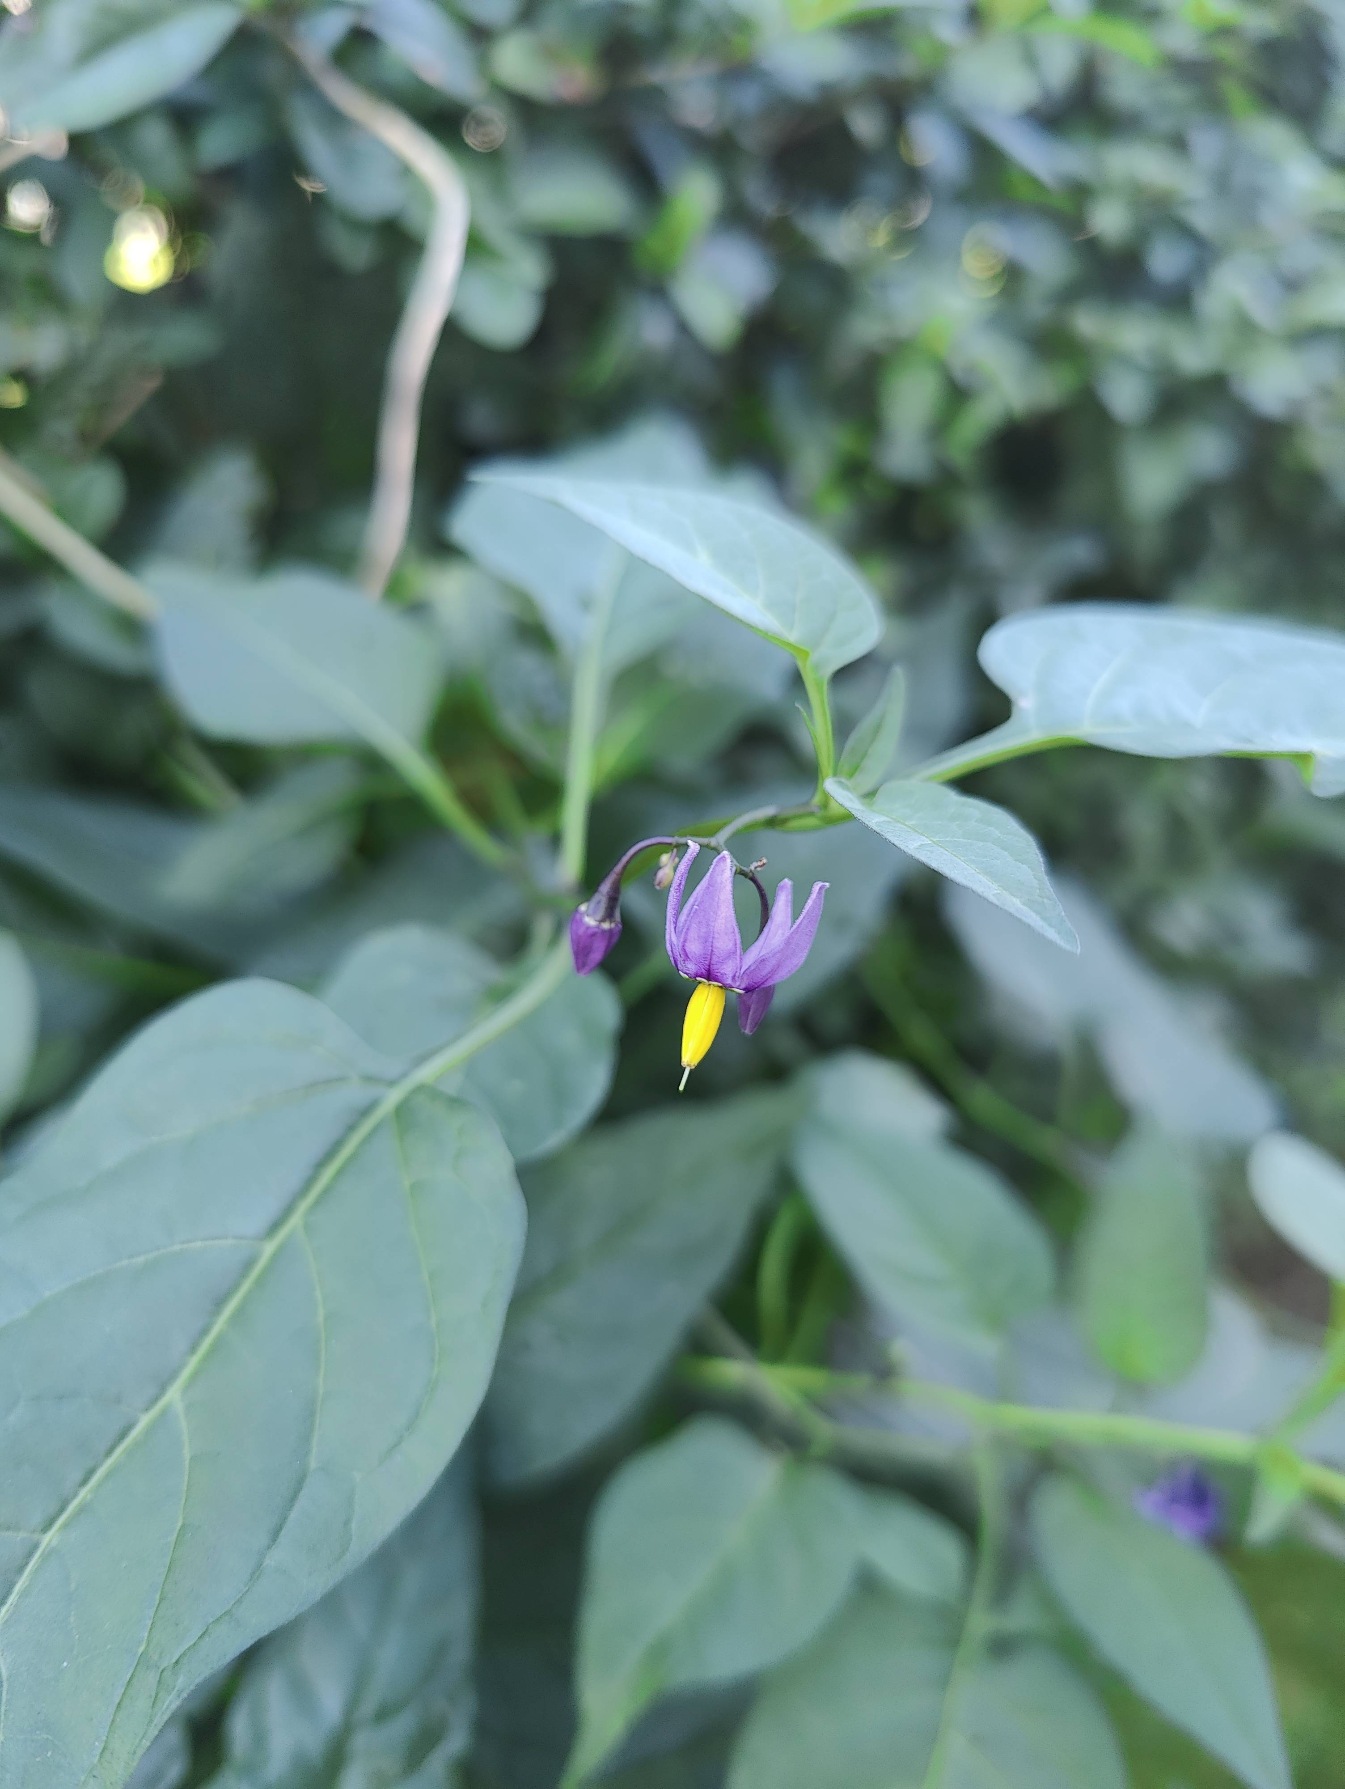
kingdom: Plantae
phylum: Tracheophyta
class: Magnoliopsida
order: Solanales
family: Solanaceae
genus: Solanum
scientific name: Solanum dulcamara
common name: Bittersød natskygge
